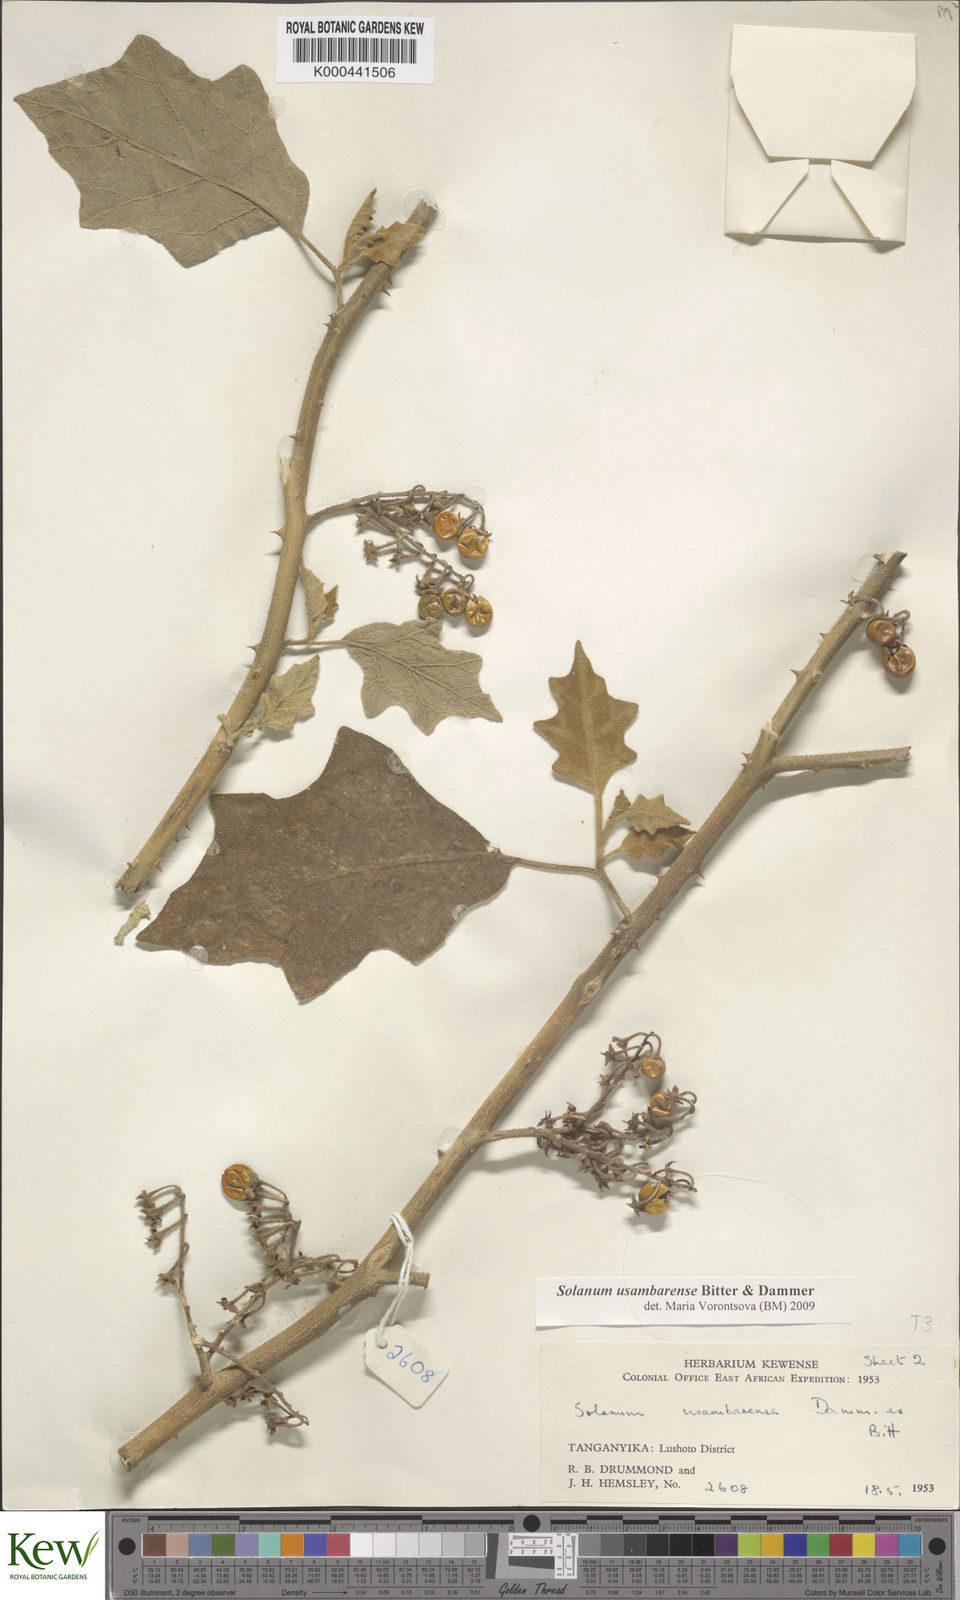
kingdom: Plantae
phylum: Tracheophyta
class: Magnoliopsida
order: Solanales
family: Solanaceae
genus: Solanum
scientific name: Solanum usambarense
